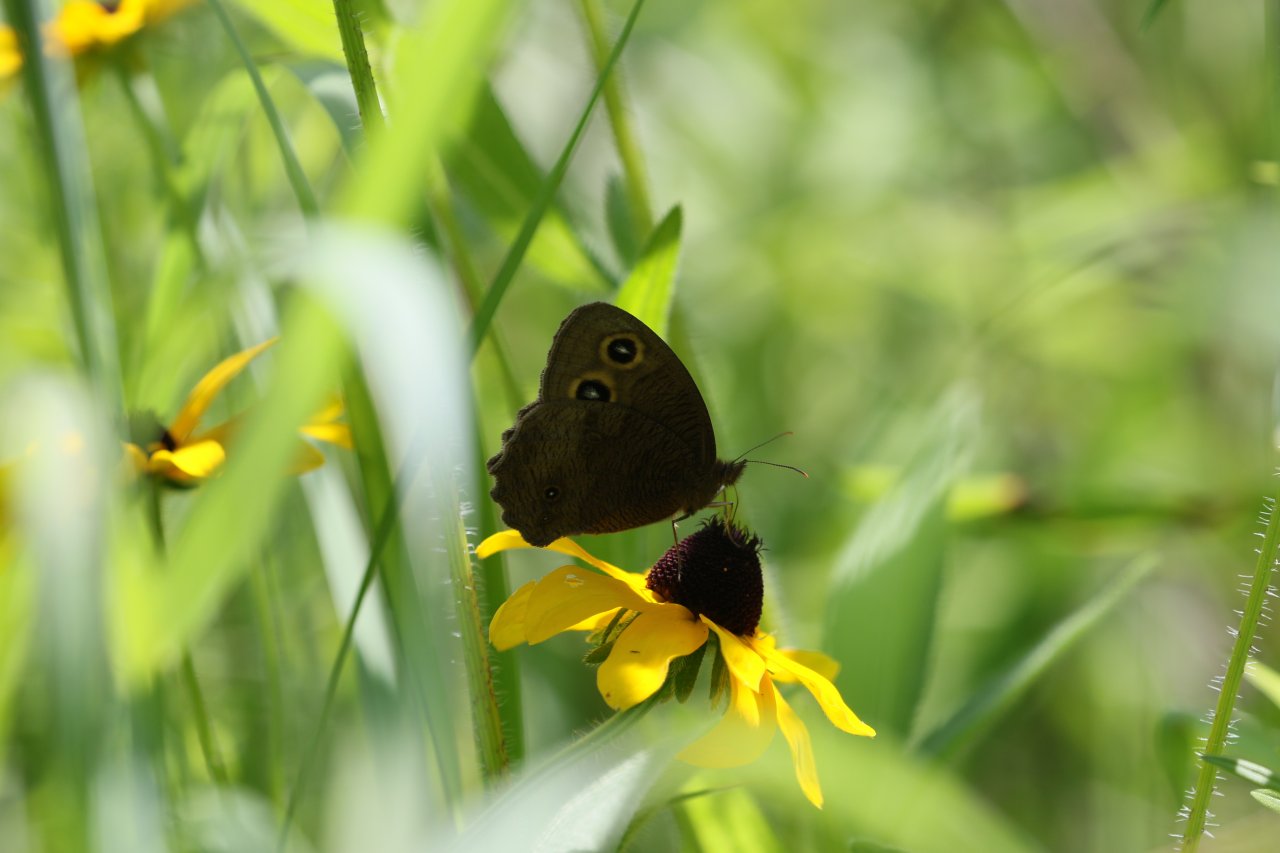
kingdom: Animalia
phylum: Arthropoda
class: Insecta
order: Lepidoptera
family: Nymphalidae
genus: Cercyonis
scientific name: Cercyonis pegala
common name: Common Wood-Nymph
